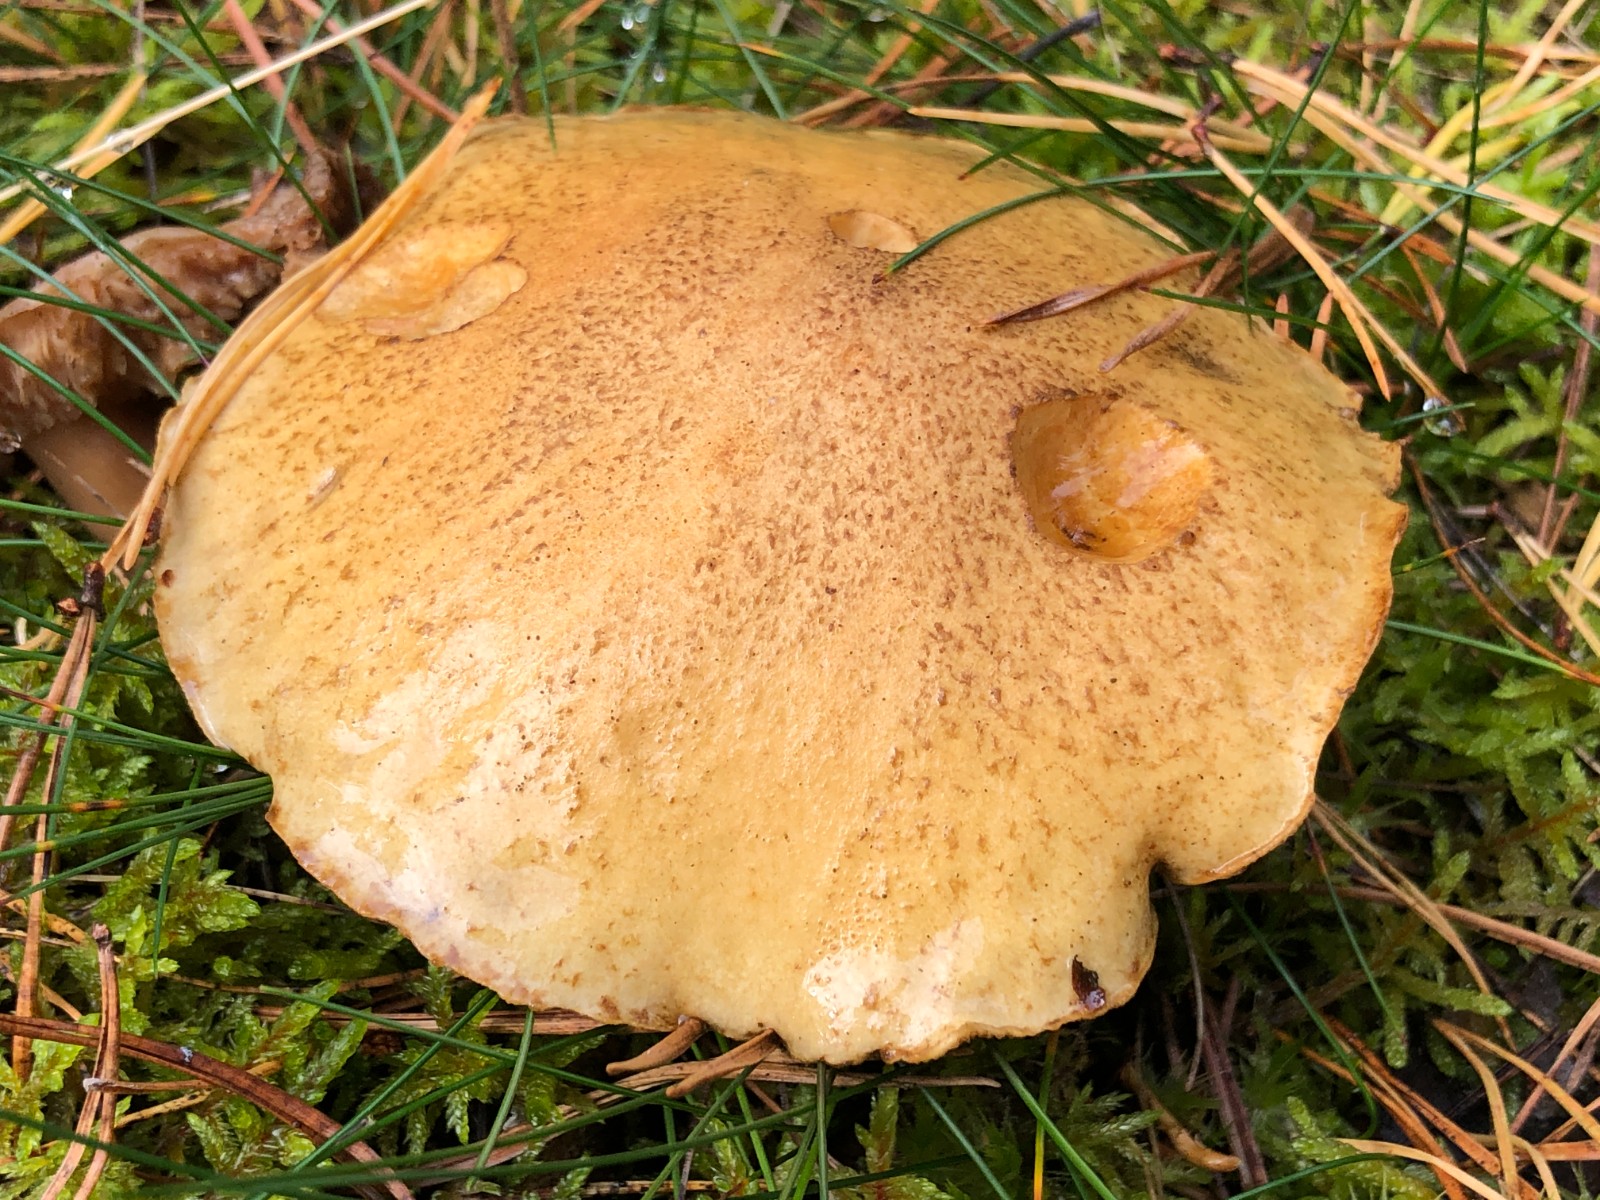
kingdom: Fungi
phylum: Basidiomycota
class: Agaricomycetes
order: Boletales
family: Suillaceae
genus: Suillus
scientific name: Suillus variegatus
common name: broget slimrørhat
